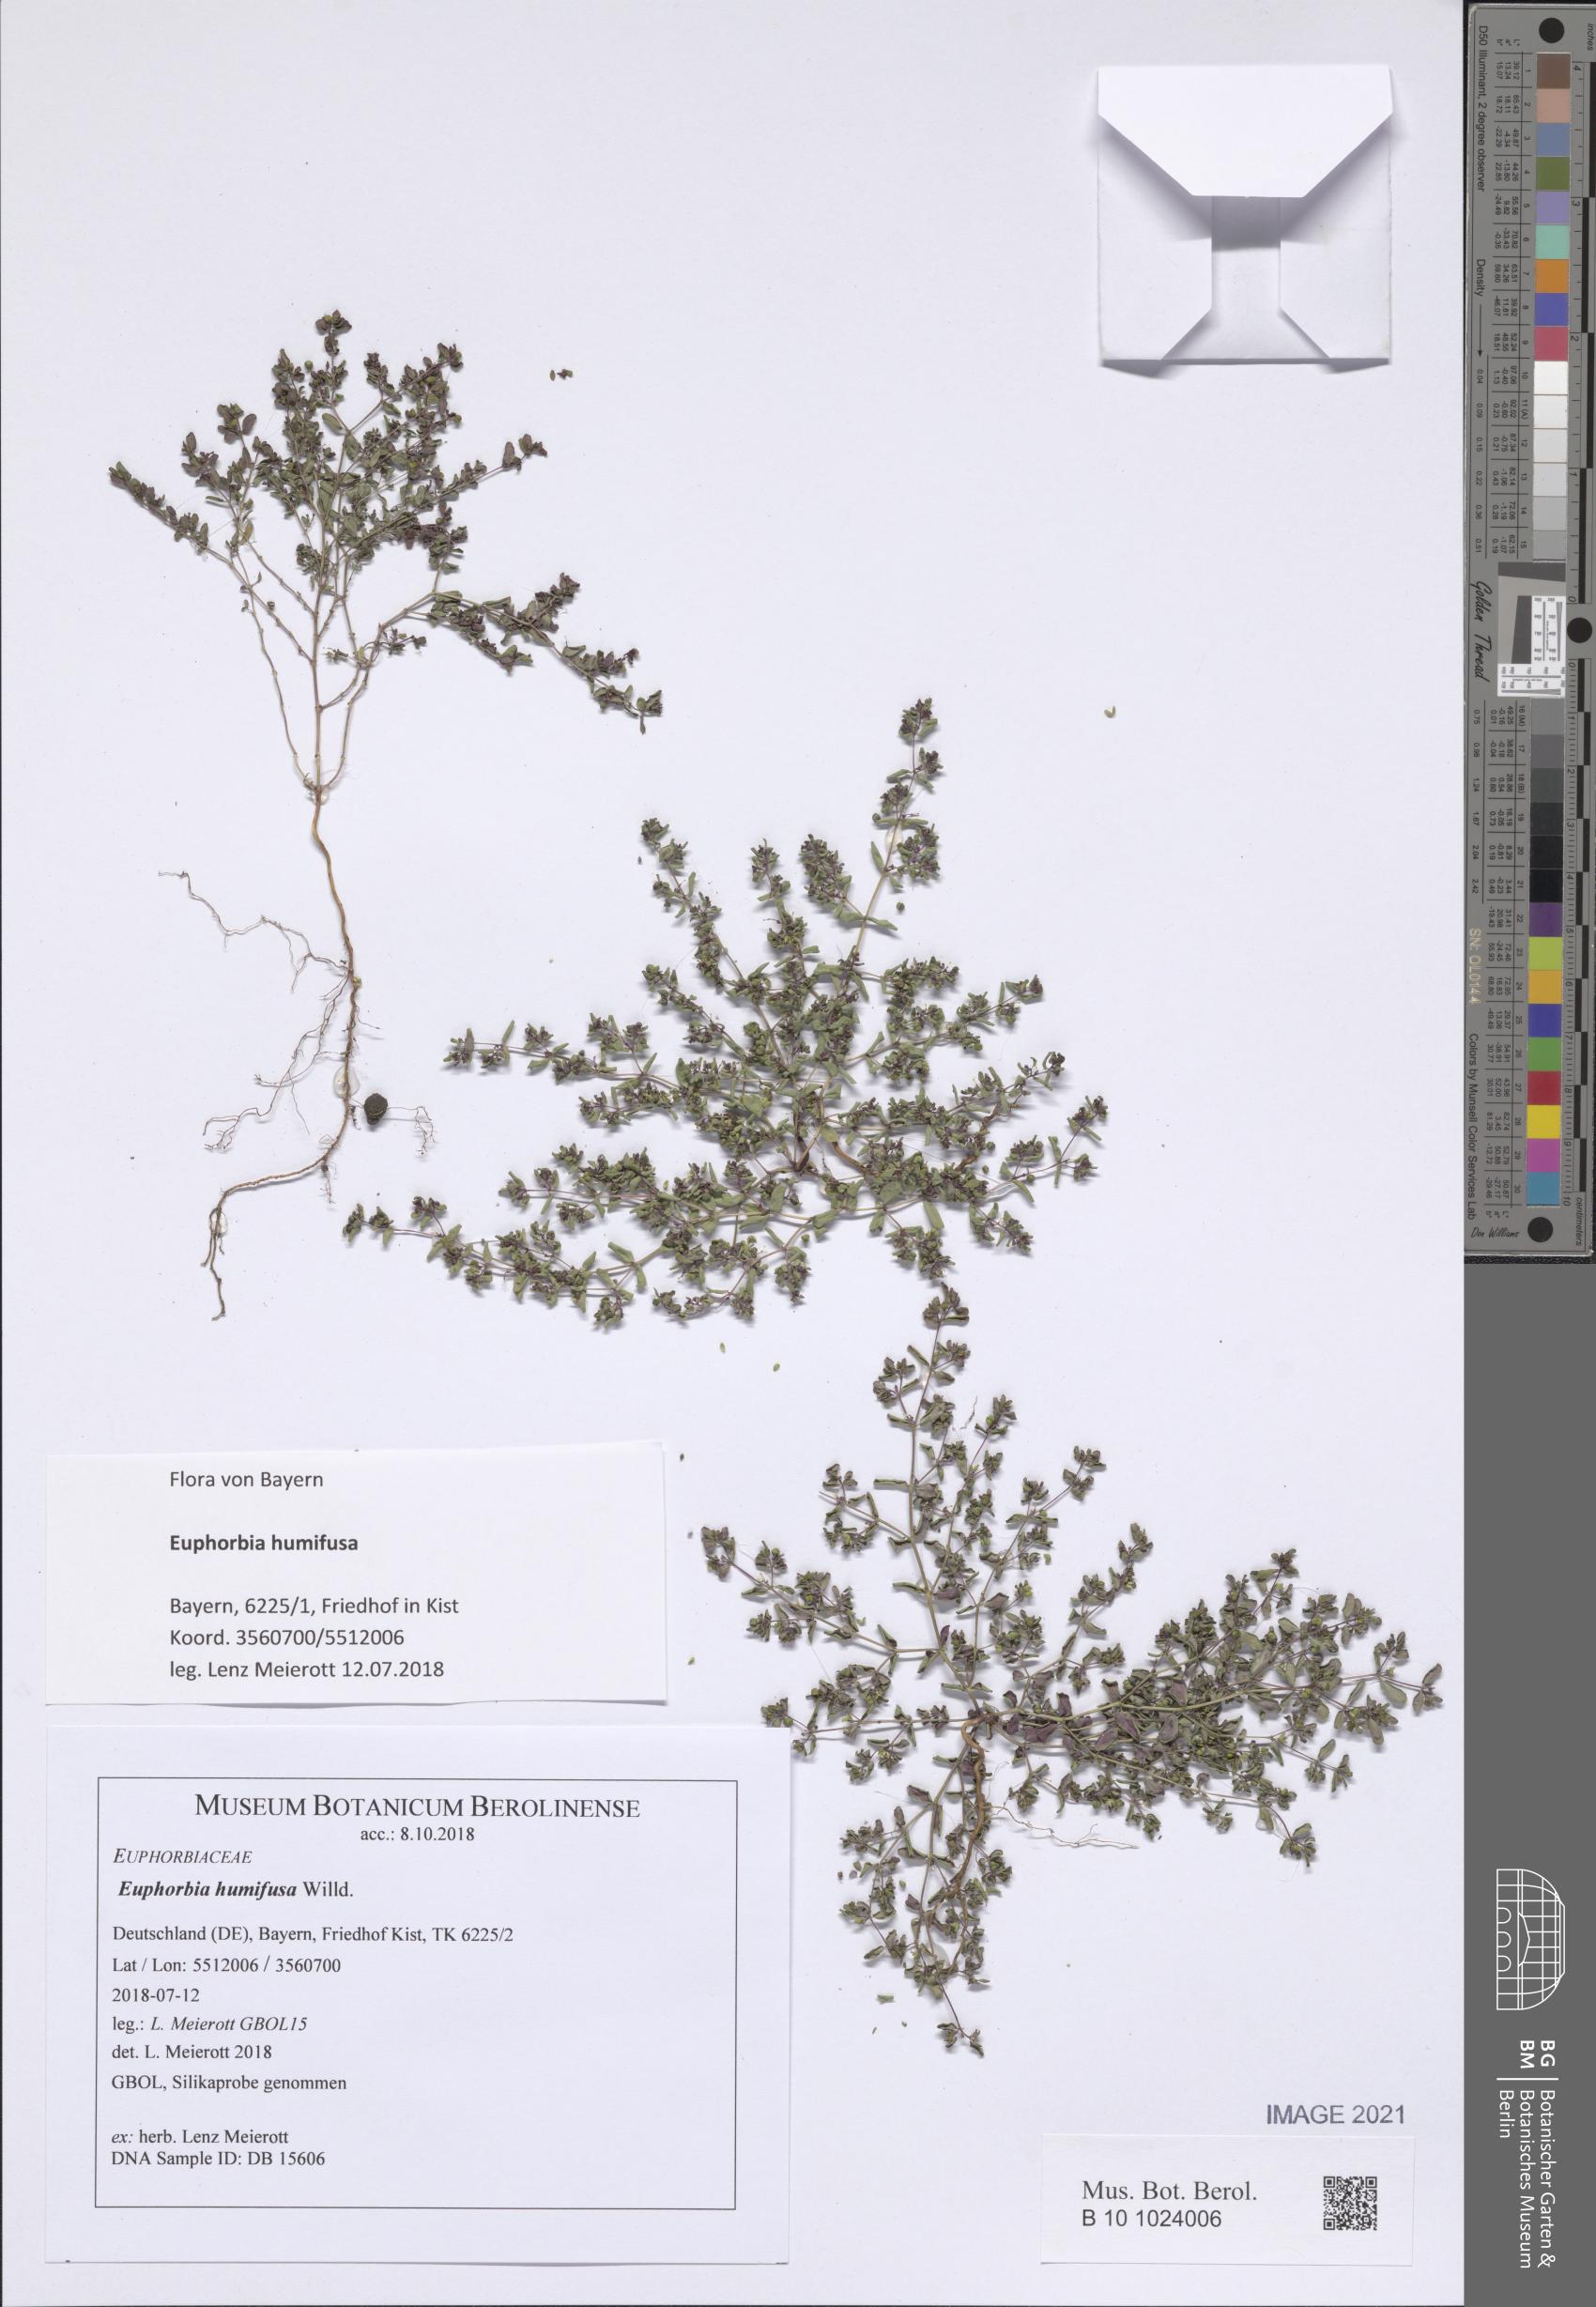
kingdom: Plantae
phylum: Tracheophyta
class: Magnoliopsida
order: Malpighiales
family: Euphorbiaceae
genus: Euphorbia
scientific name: Euphorbia humifusa
